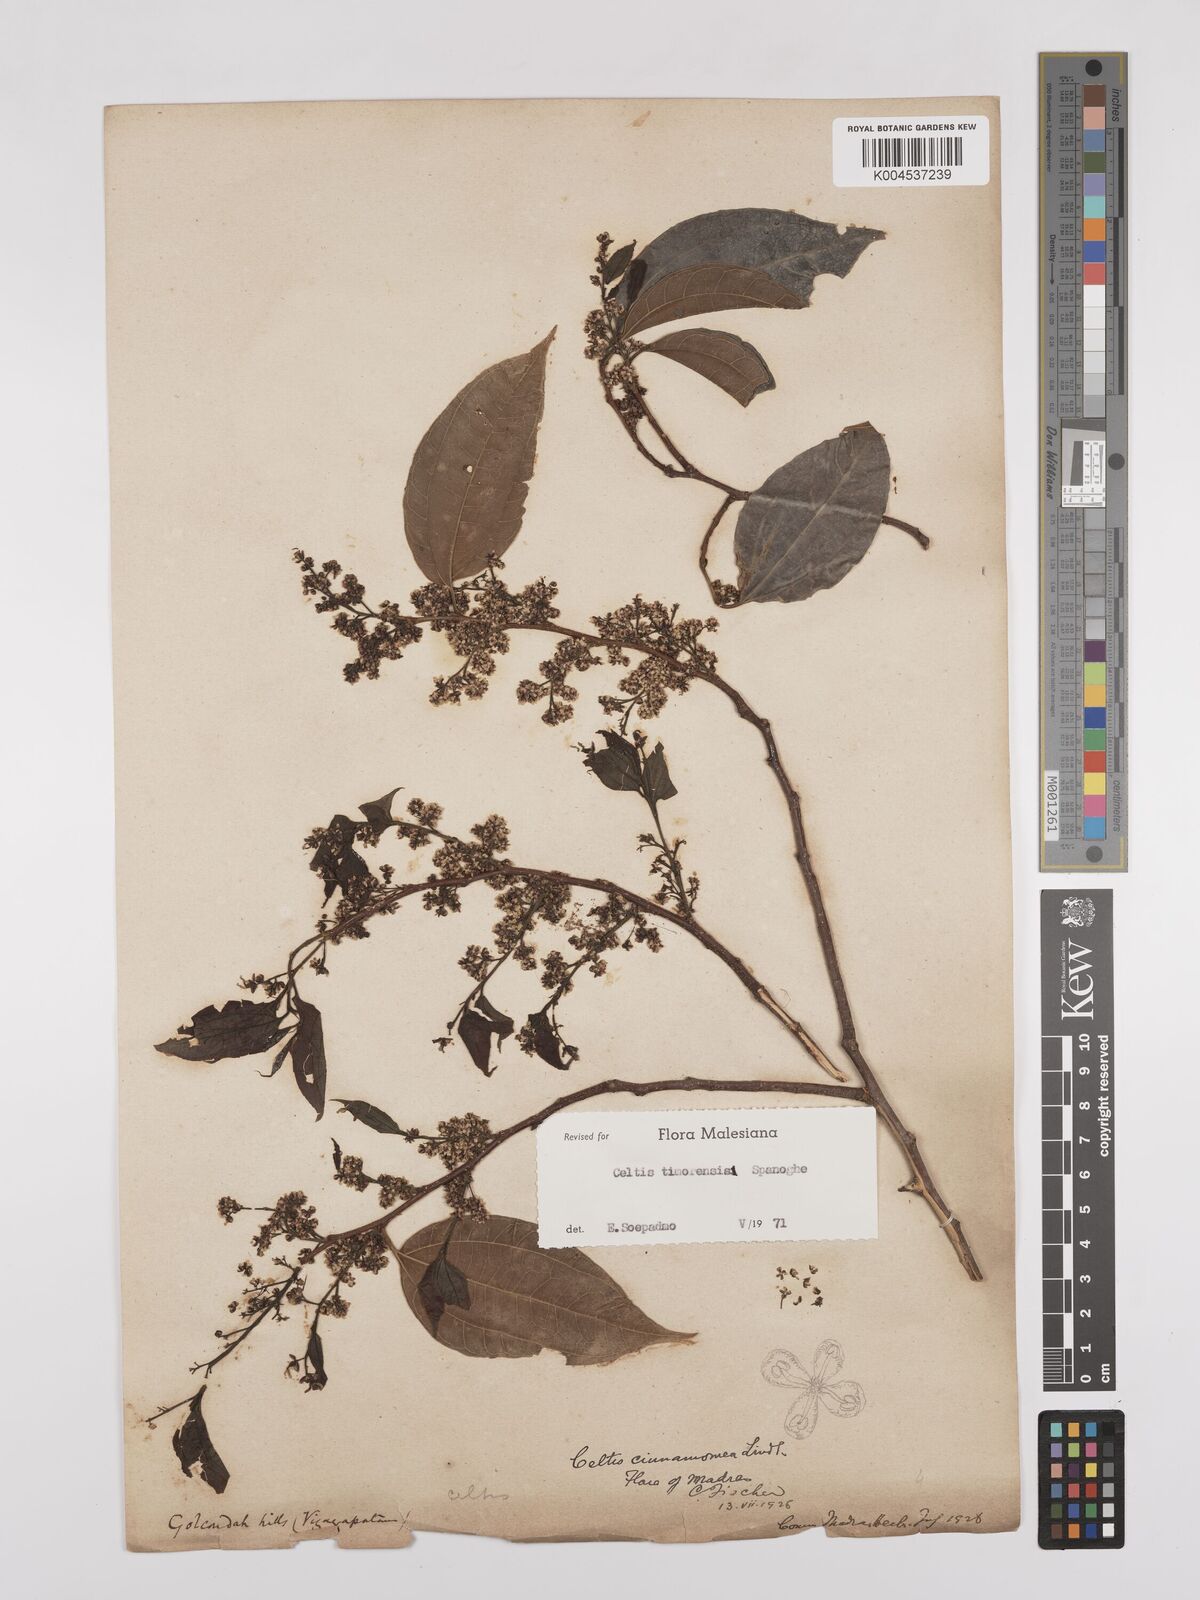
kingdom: Plantae
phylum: Tracheophyta
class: Magnoliopsida
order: Rosales
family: Cannabaceae
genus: Celtis
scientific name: Celtis timorensis
